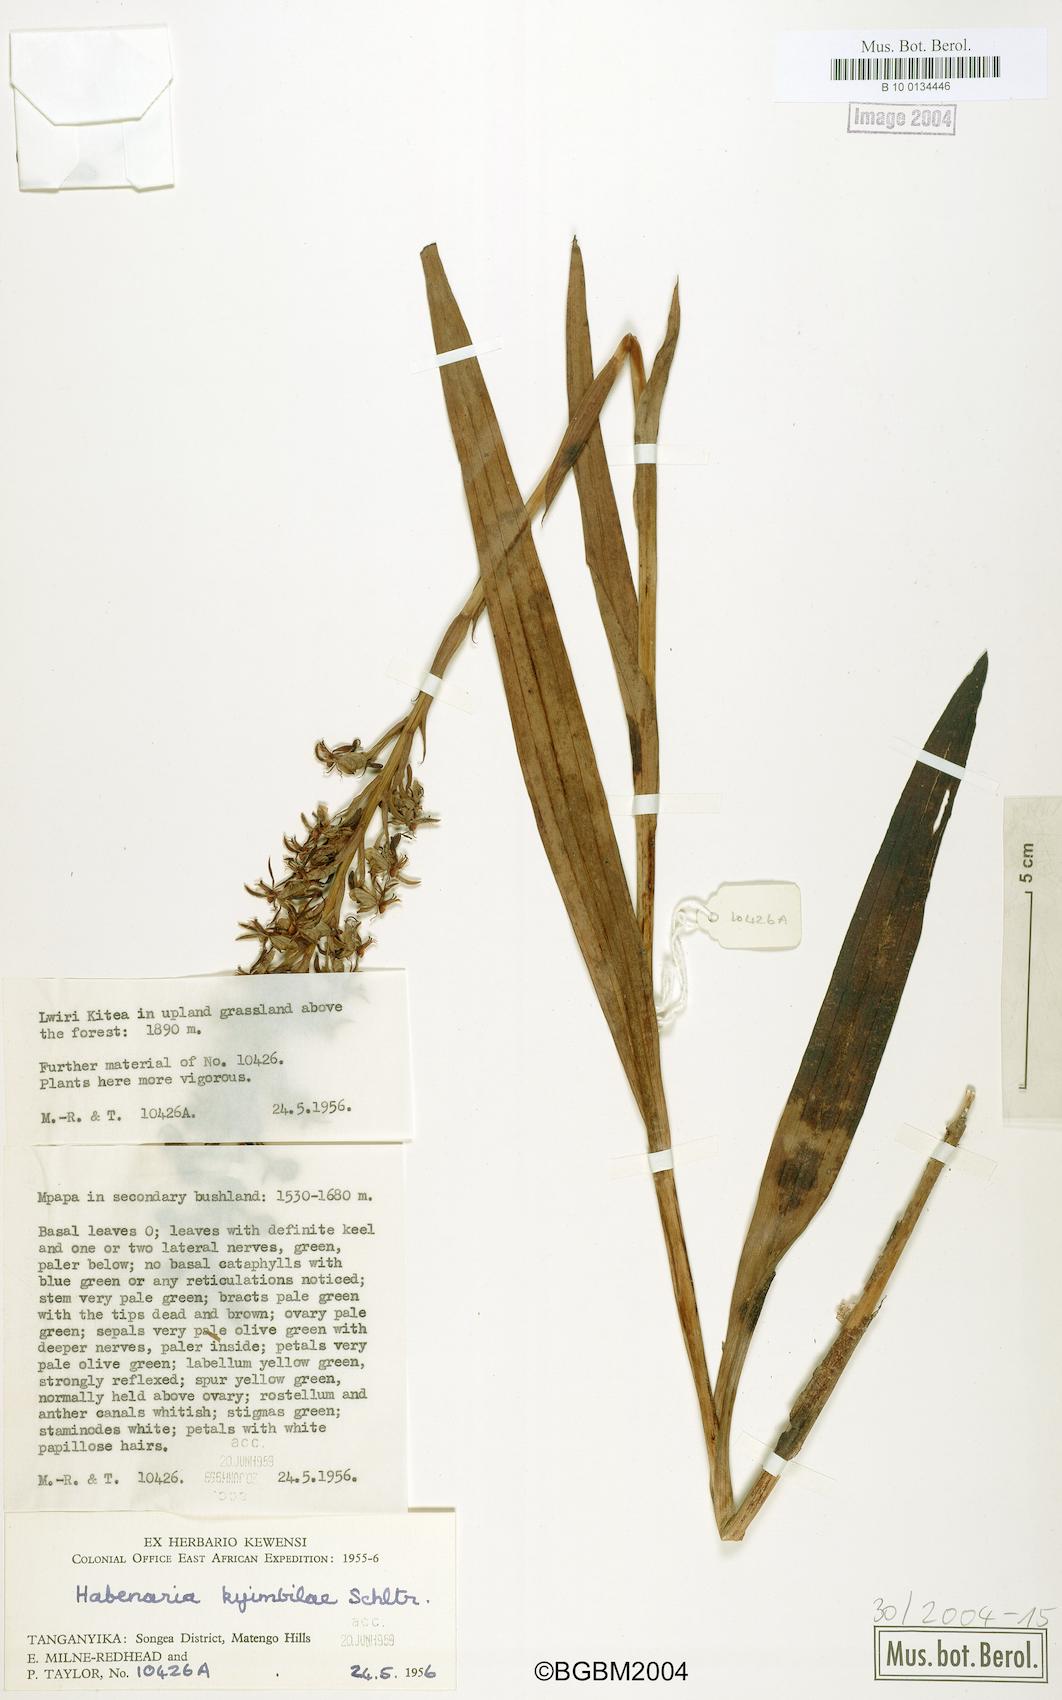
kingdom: Plantae
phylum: Tracheophyta
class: Liliopsida
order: Asparagales
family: Orchidaceae
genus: Habenaria
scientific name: Habenaria kyimbilae
